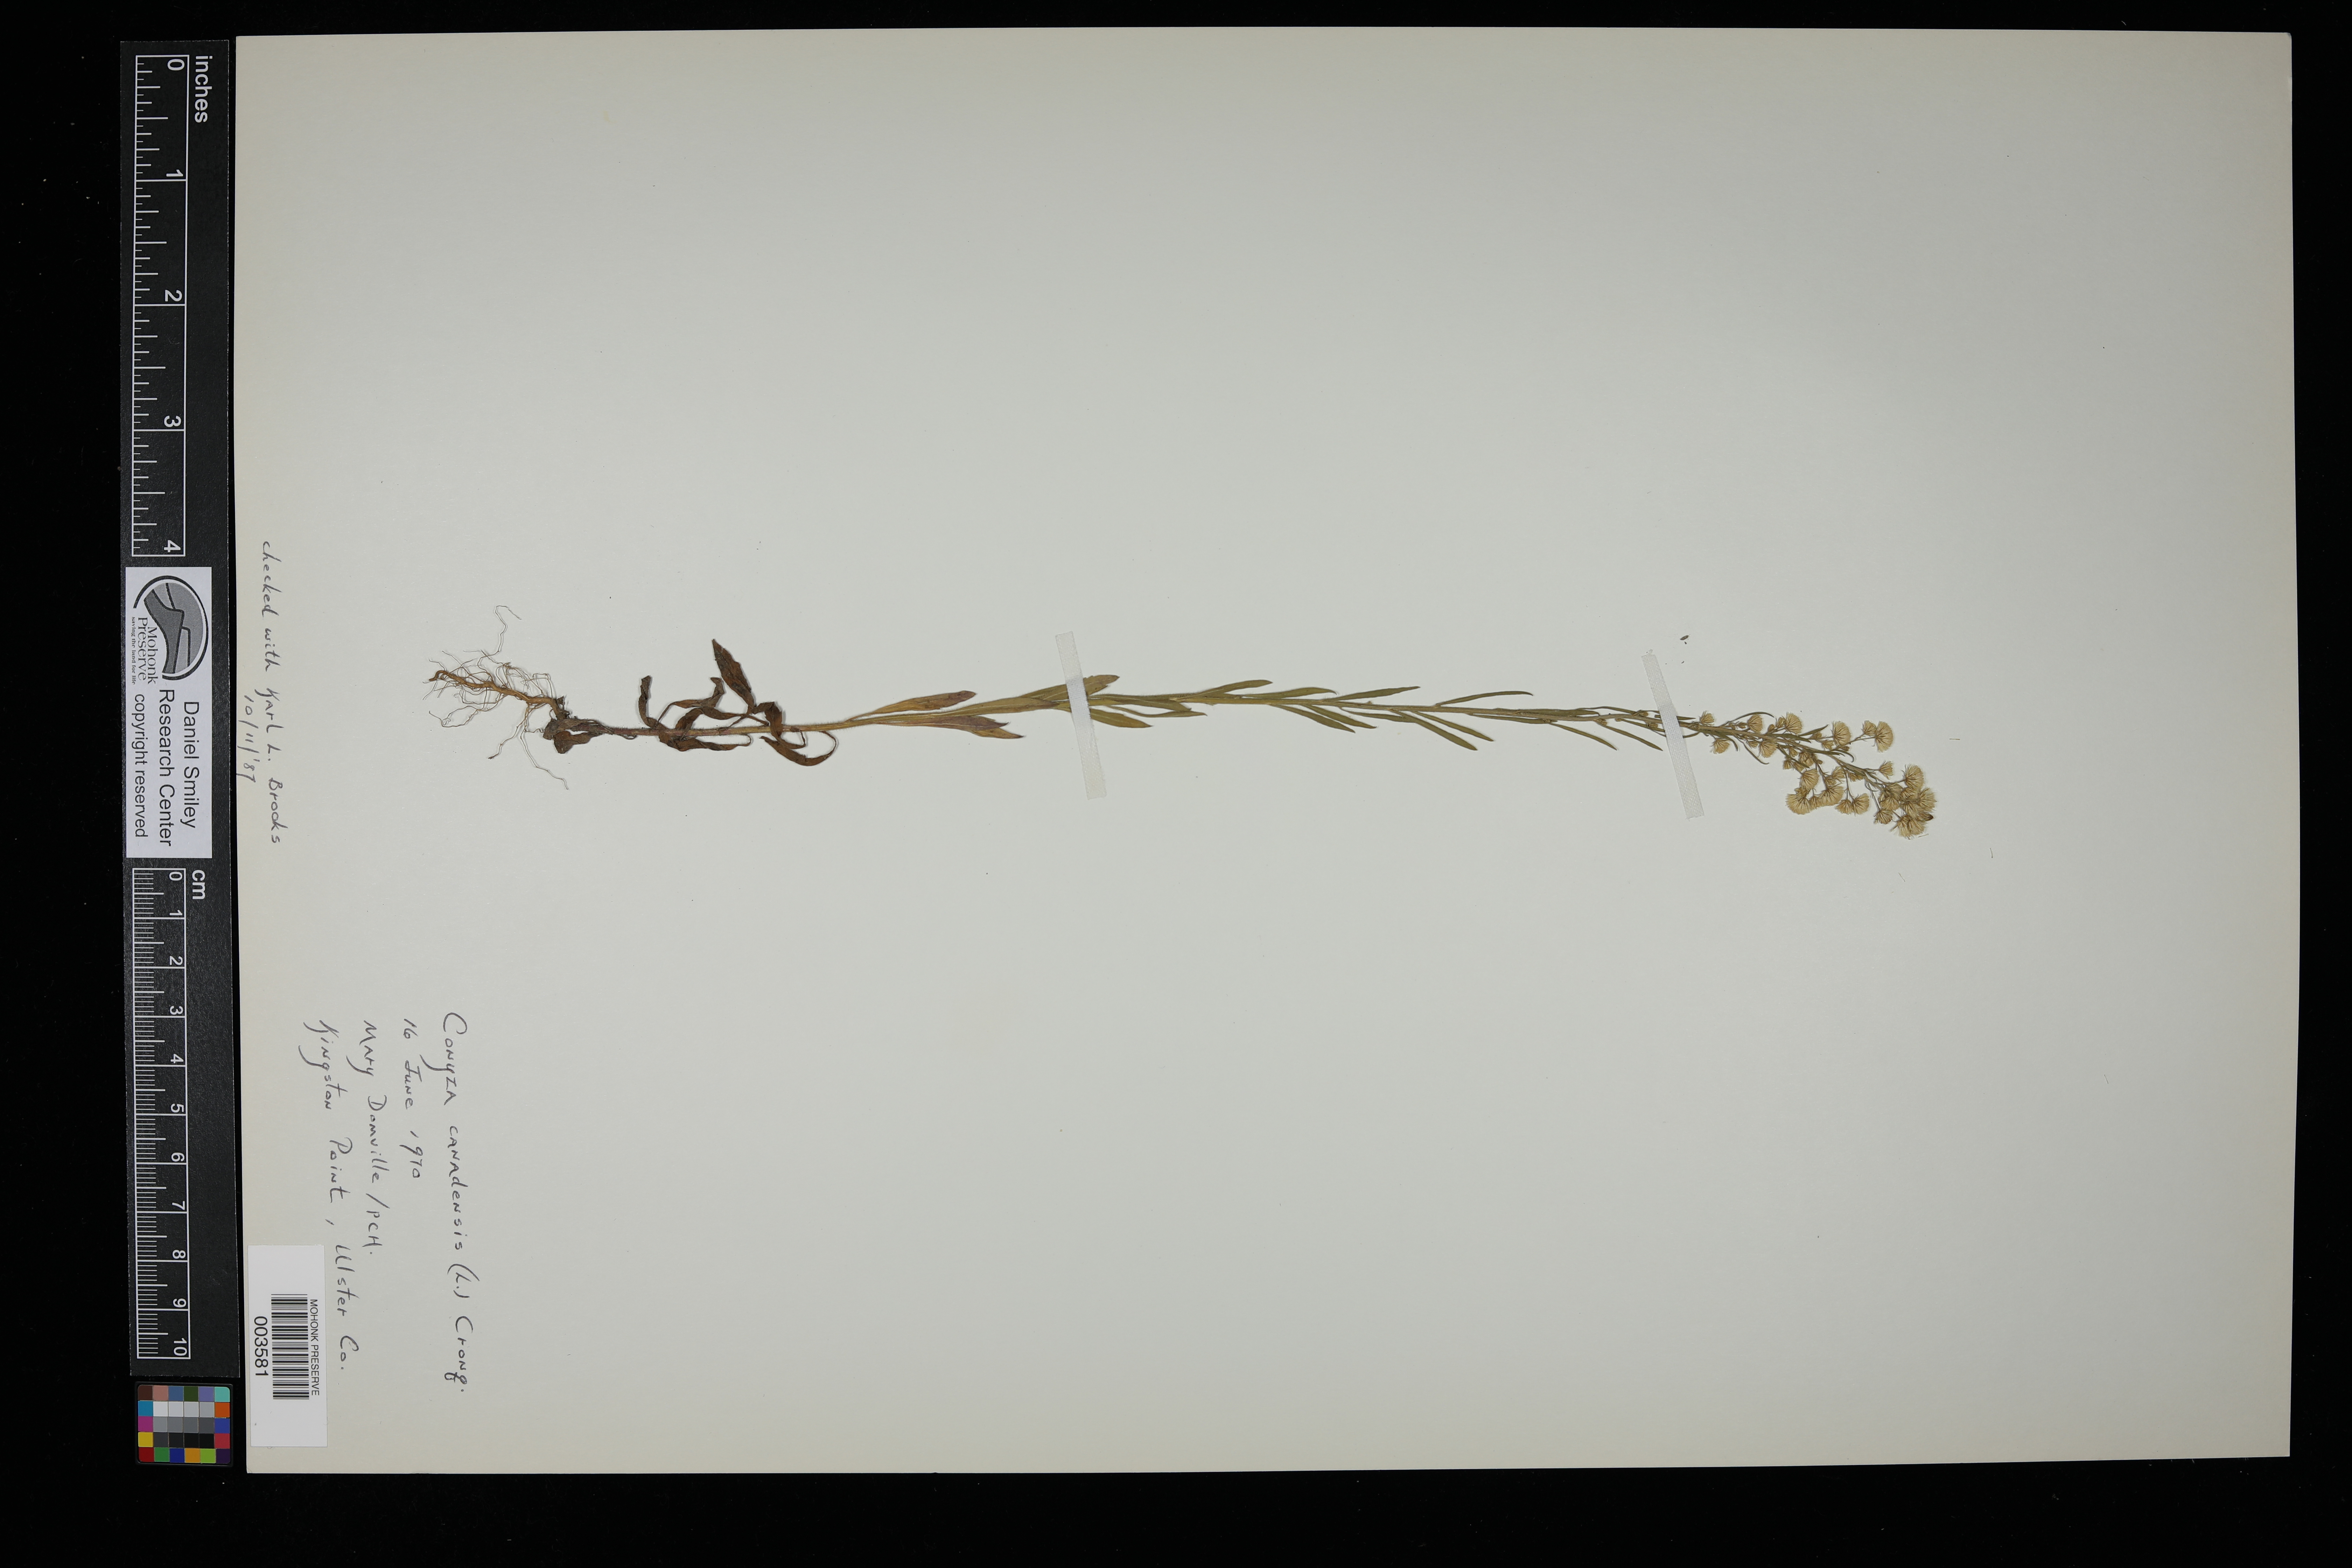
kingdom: Plantae
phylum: Tracheophyta
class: Magnoliopsida
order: Asterales
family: Asteraceae
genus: Erigeron
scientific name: Erigeron canadensis
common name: Canadian fleabane
